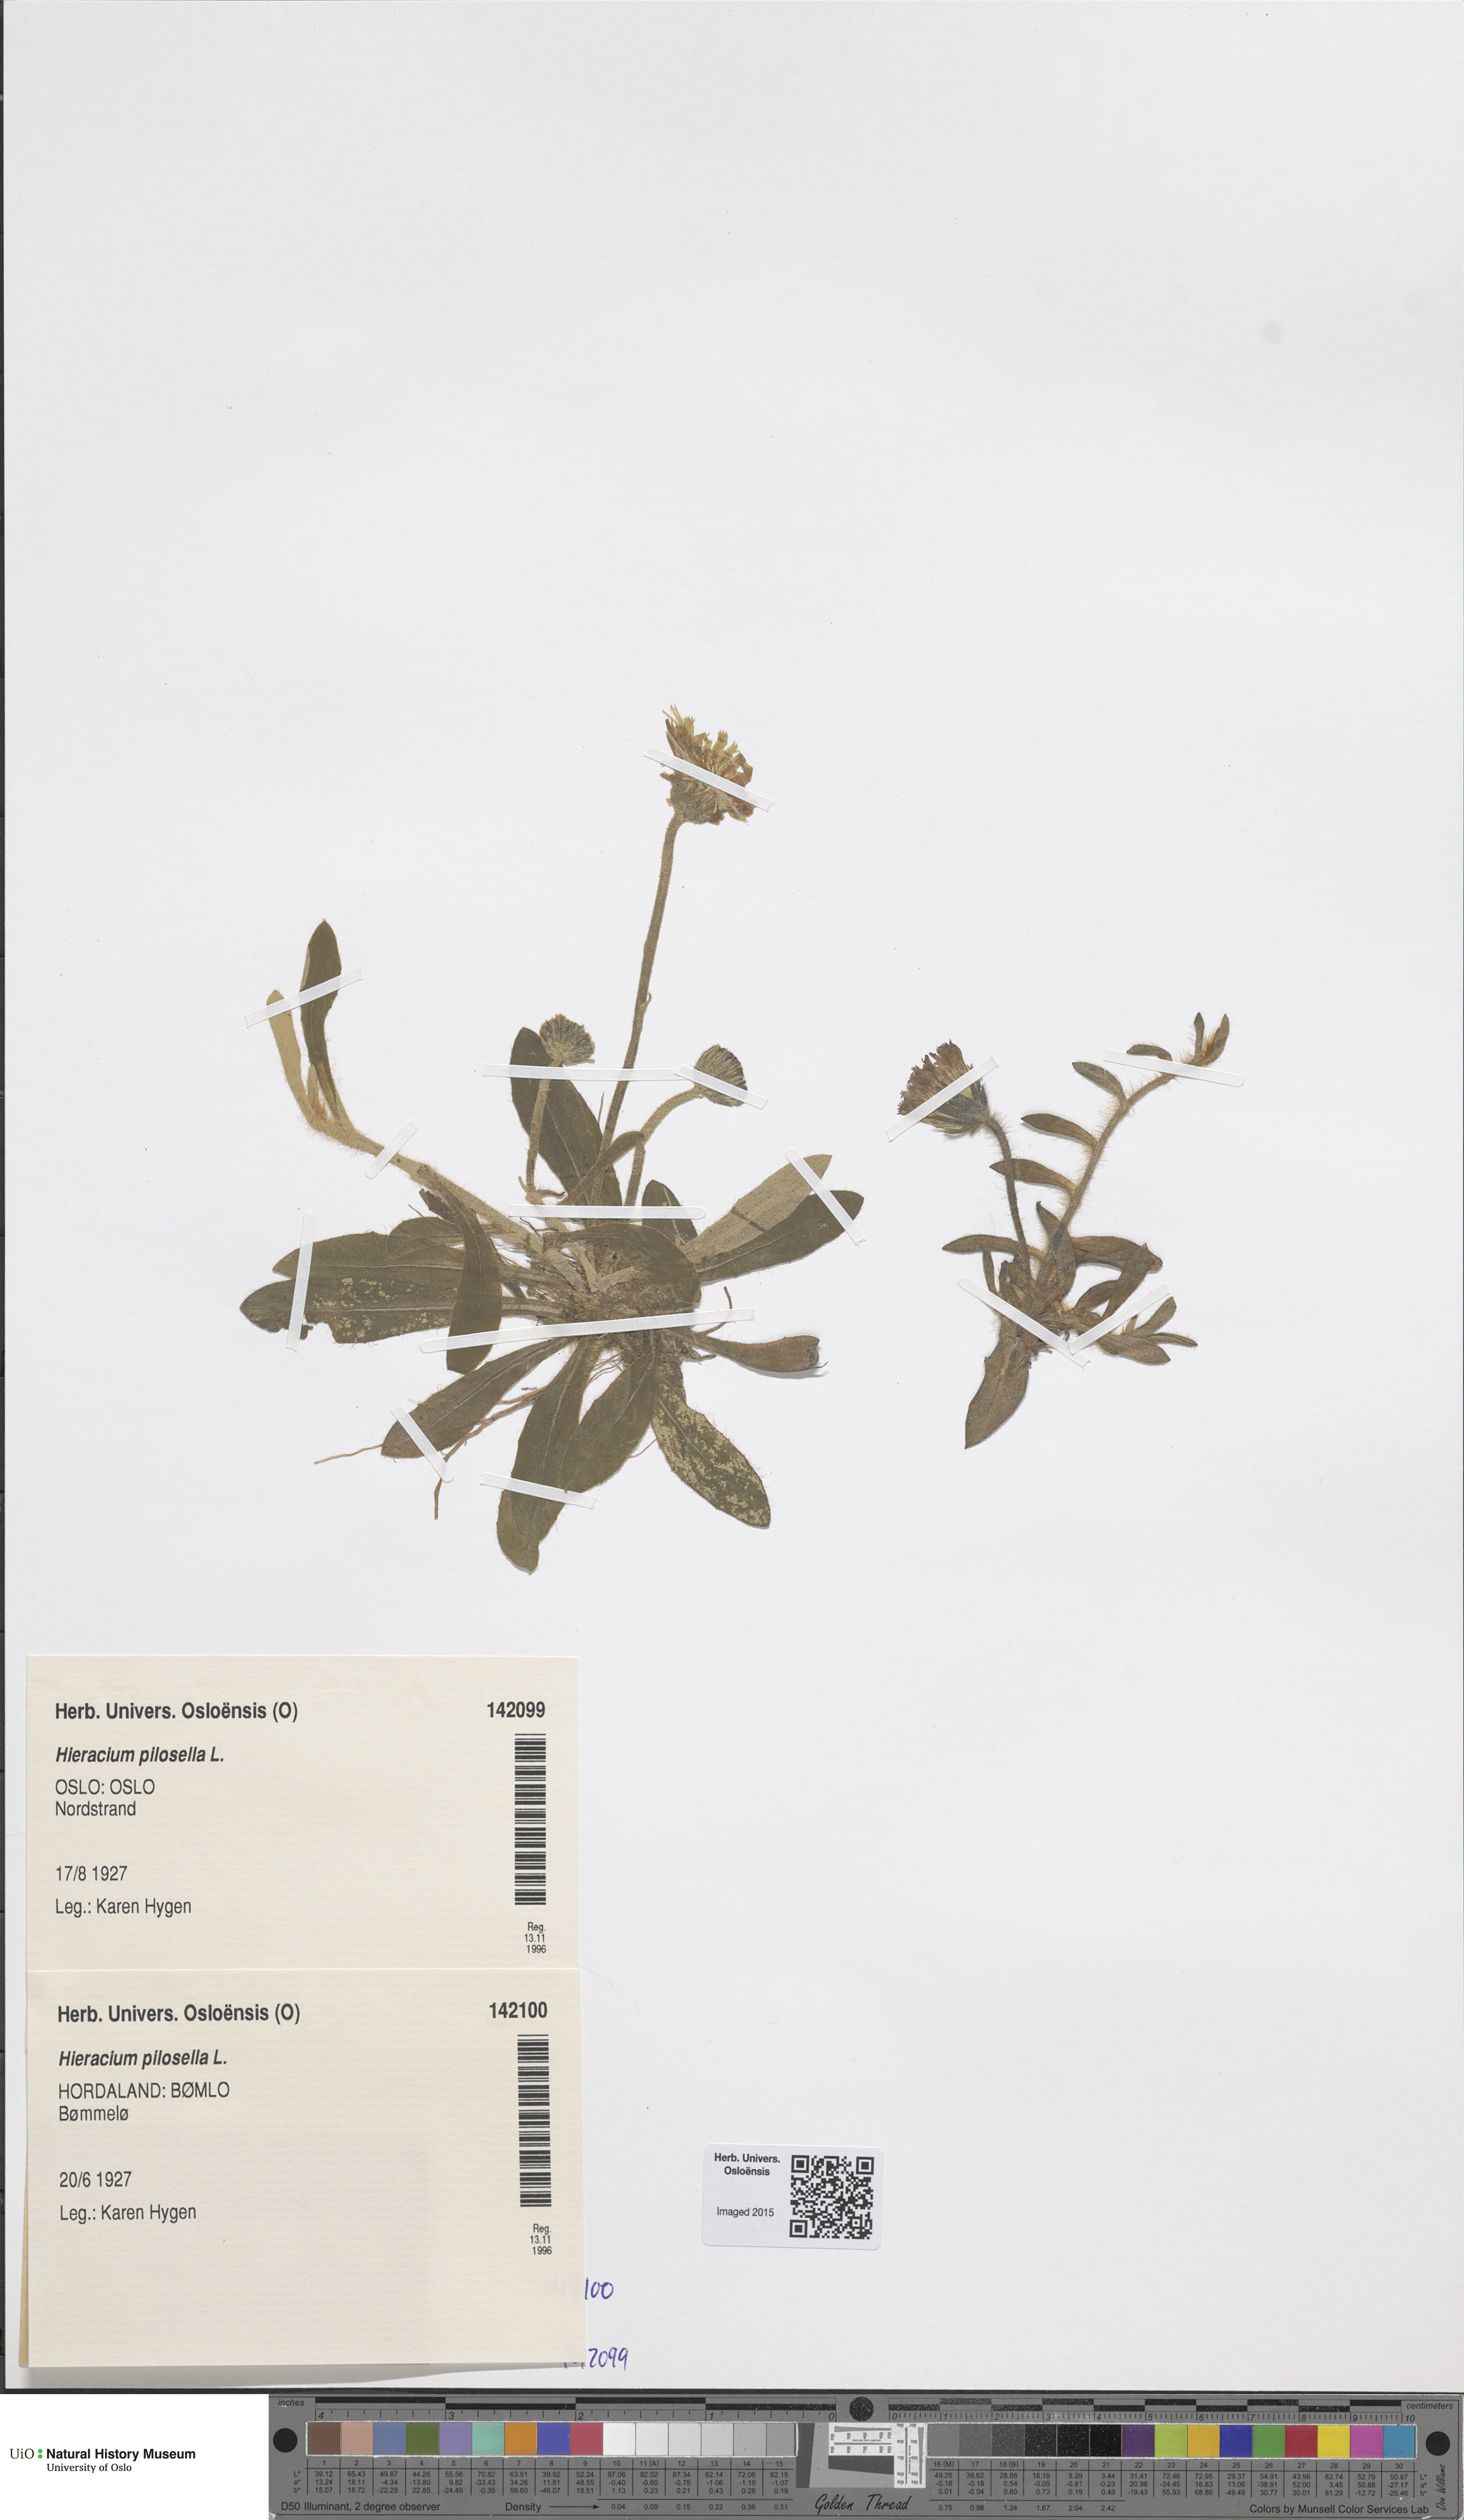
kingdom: Plantae
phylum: Tracheophyta
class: Magnoliopsida
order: Asterales
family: Asteraceae
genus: Pilosella
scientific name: Pilosella officinarum
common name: Mouse-ear hawkweed
